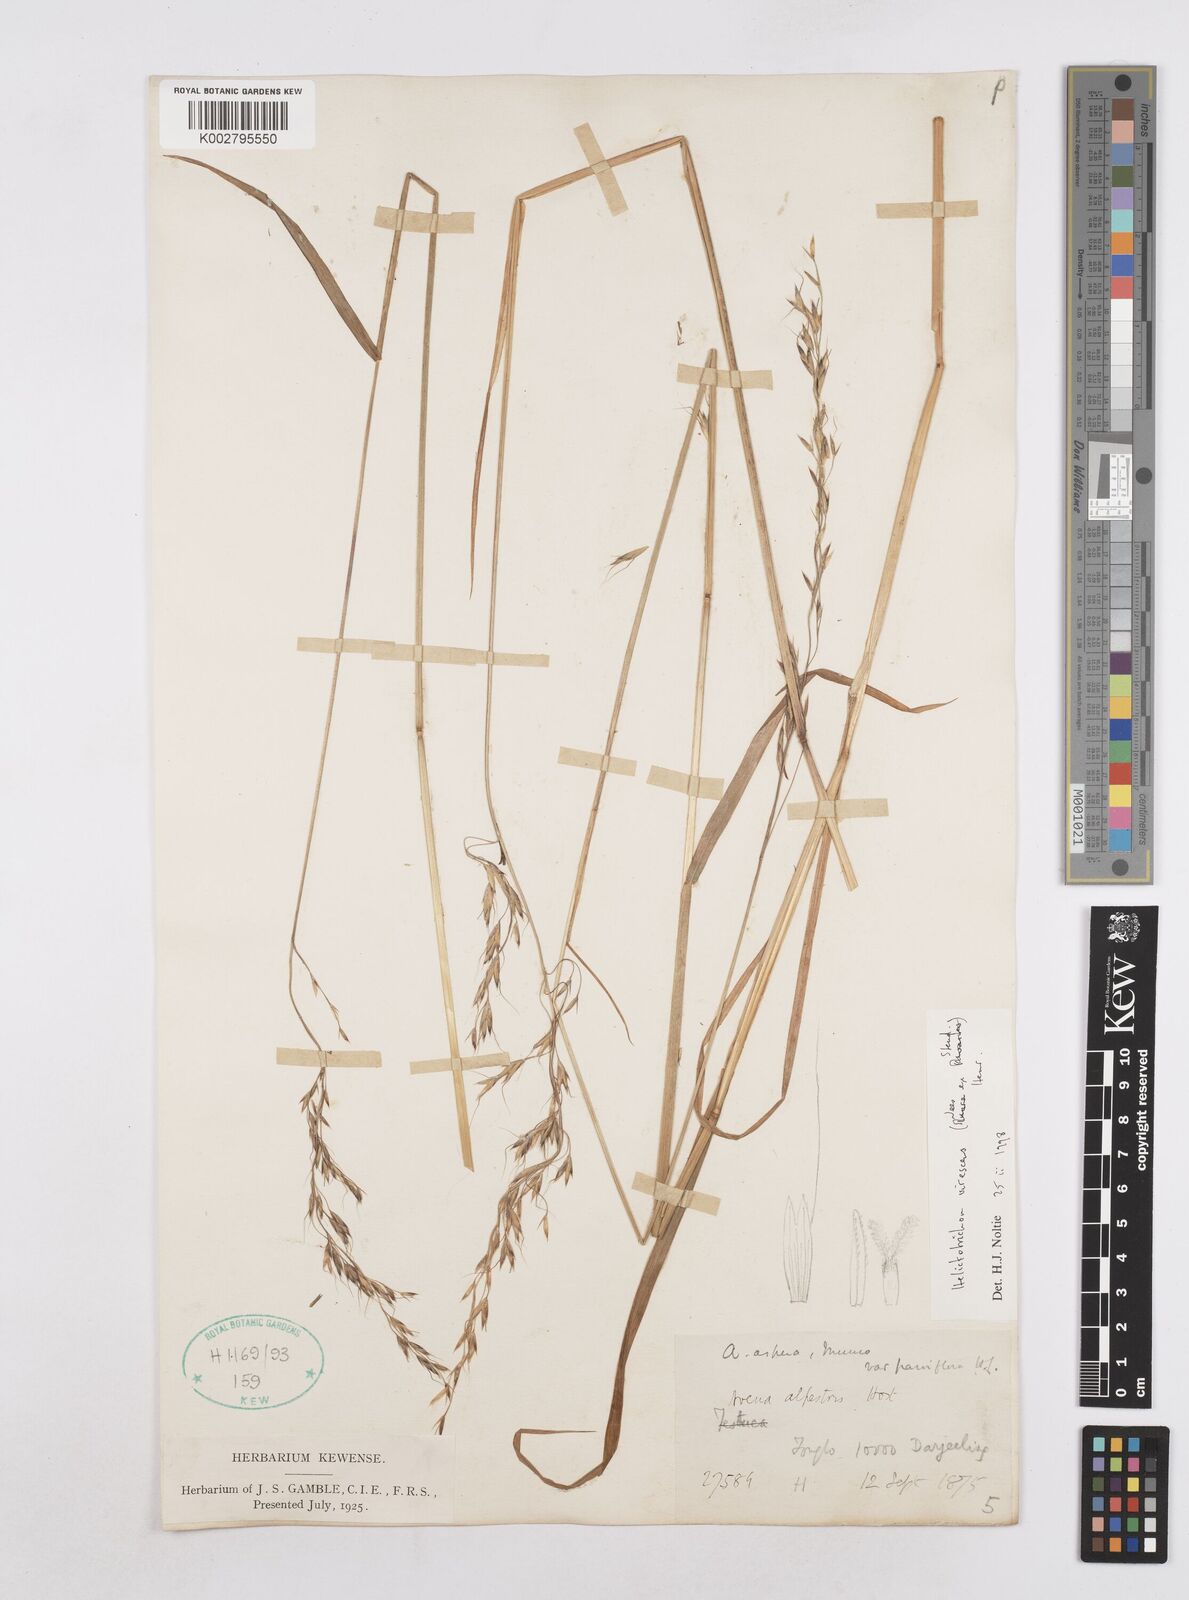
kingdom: Plantae
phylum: Tracheophyta
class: Liliopsida
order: Poales
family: Poaceae
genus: Trisetopsis
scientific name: Trisetopsis junghuhnii
